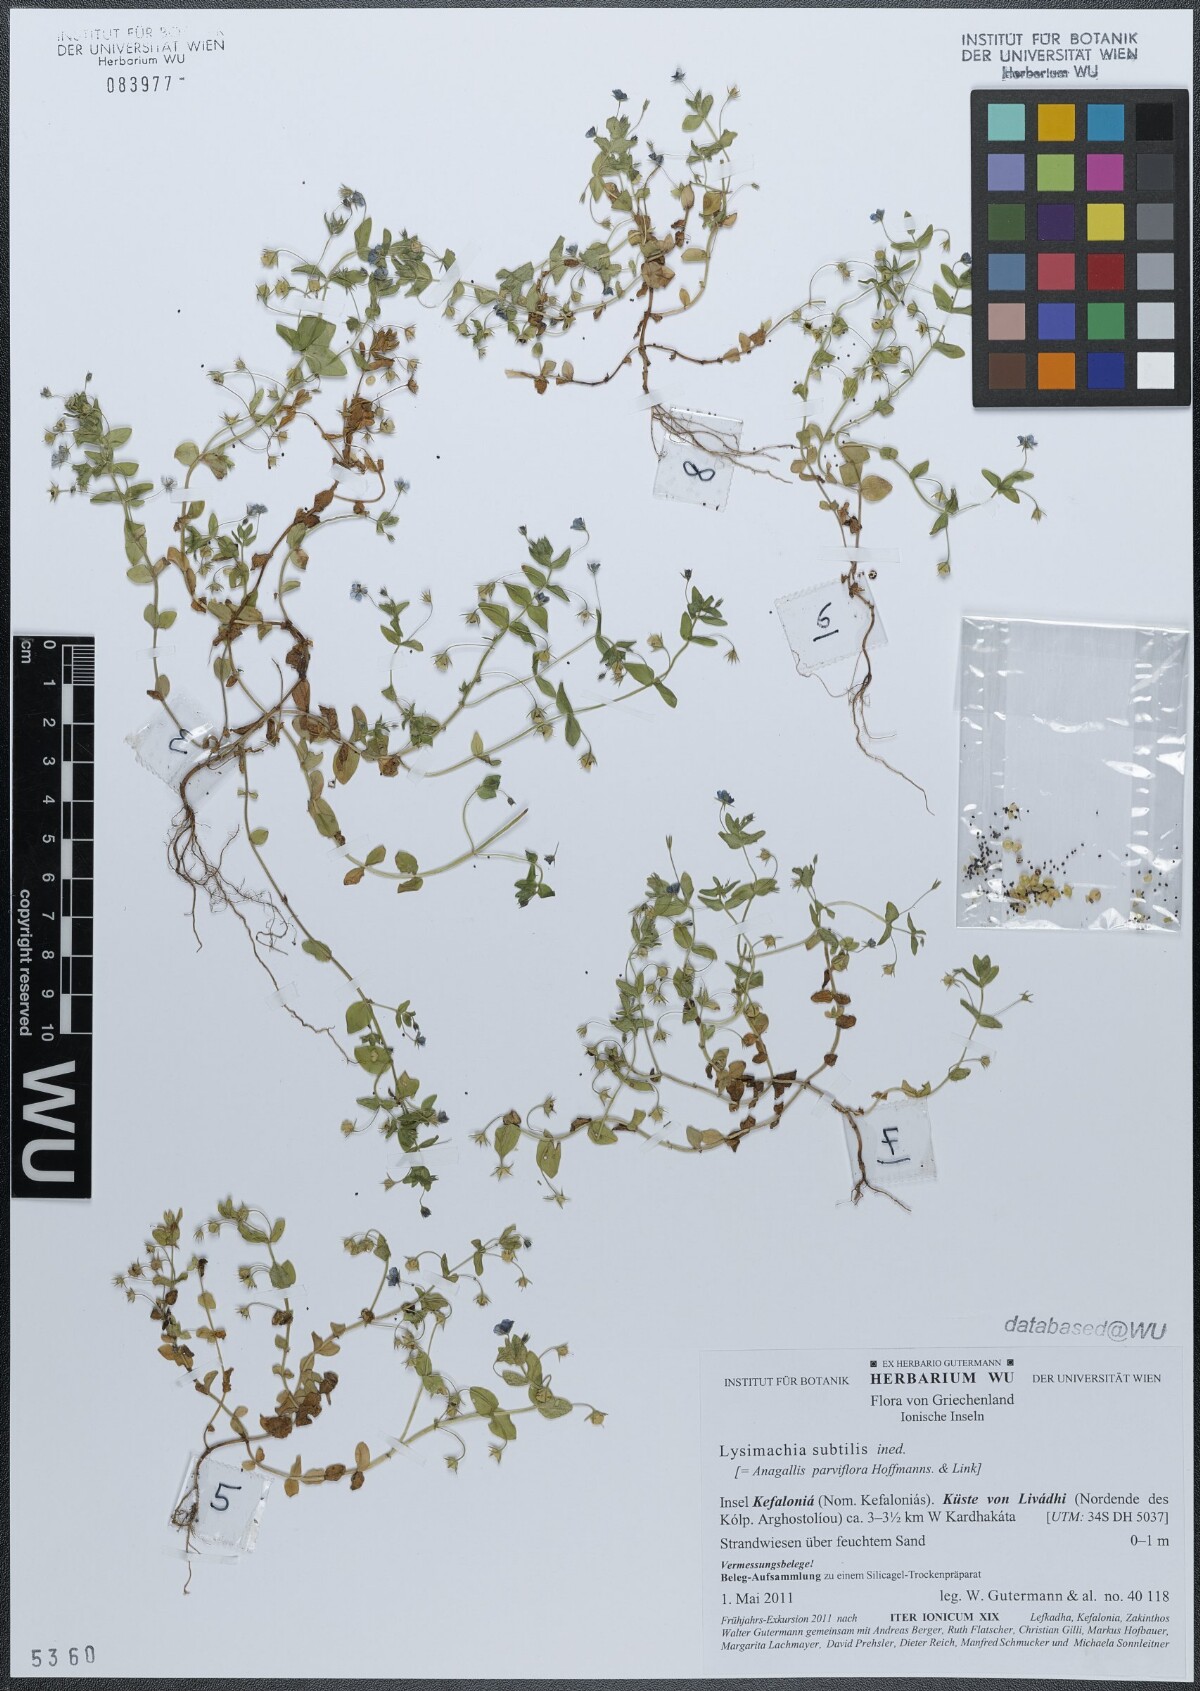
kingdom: Plantae
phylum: Tracheophyta
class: Magnoliopsida
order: Ericales
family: Primulaceae
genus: Lysimachia
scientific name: Lysimachia talaverae
